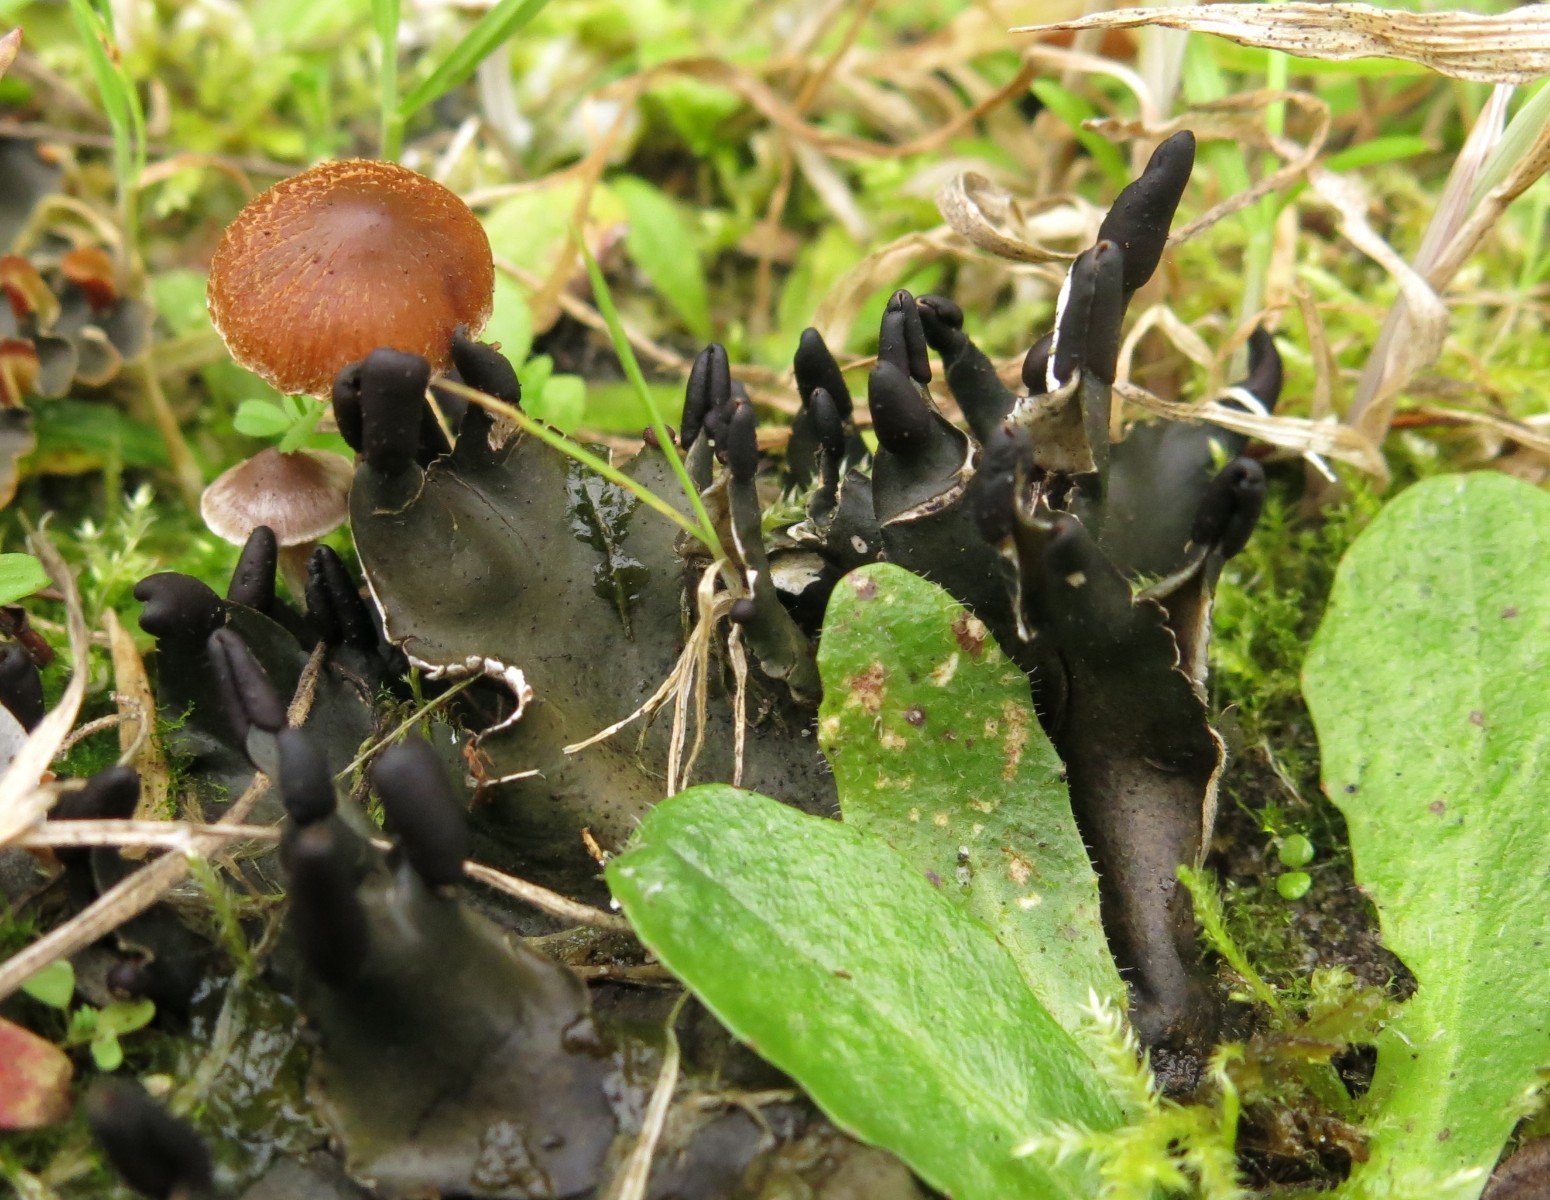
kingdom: Fungi
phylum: Ascomycota
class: Lecanoromycetes
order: Peltigerales
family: Peltigeraceae
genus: Peltigera
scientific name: Peltigera neckeri
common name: glinsende skjoldlav
